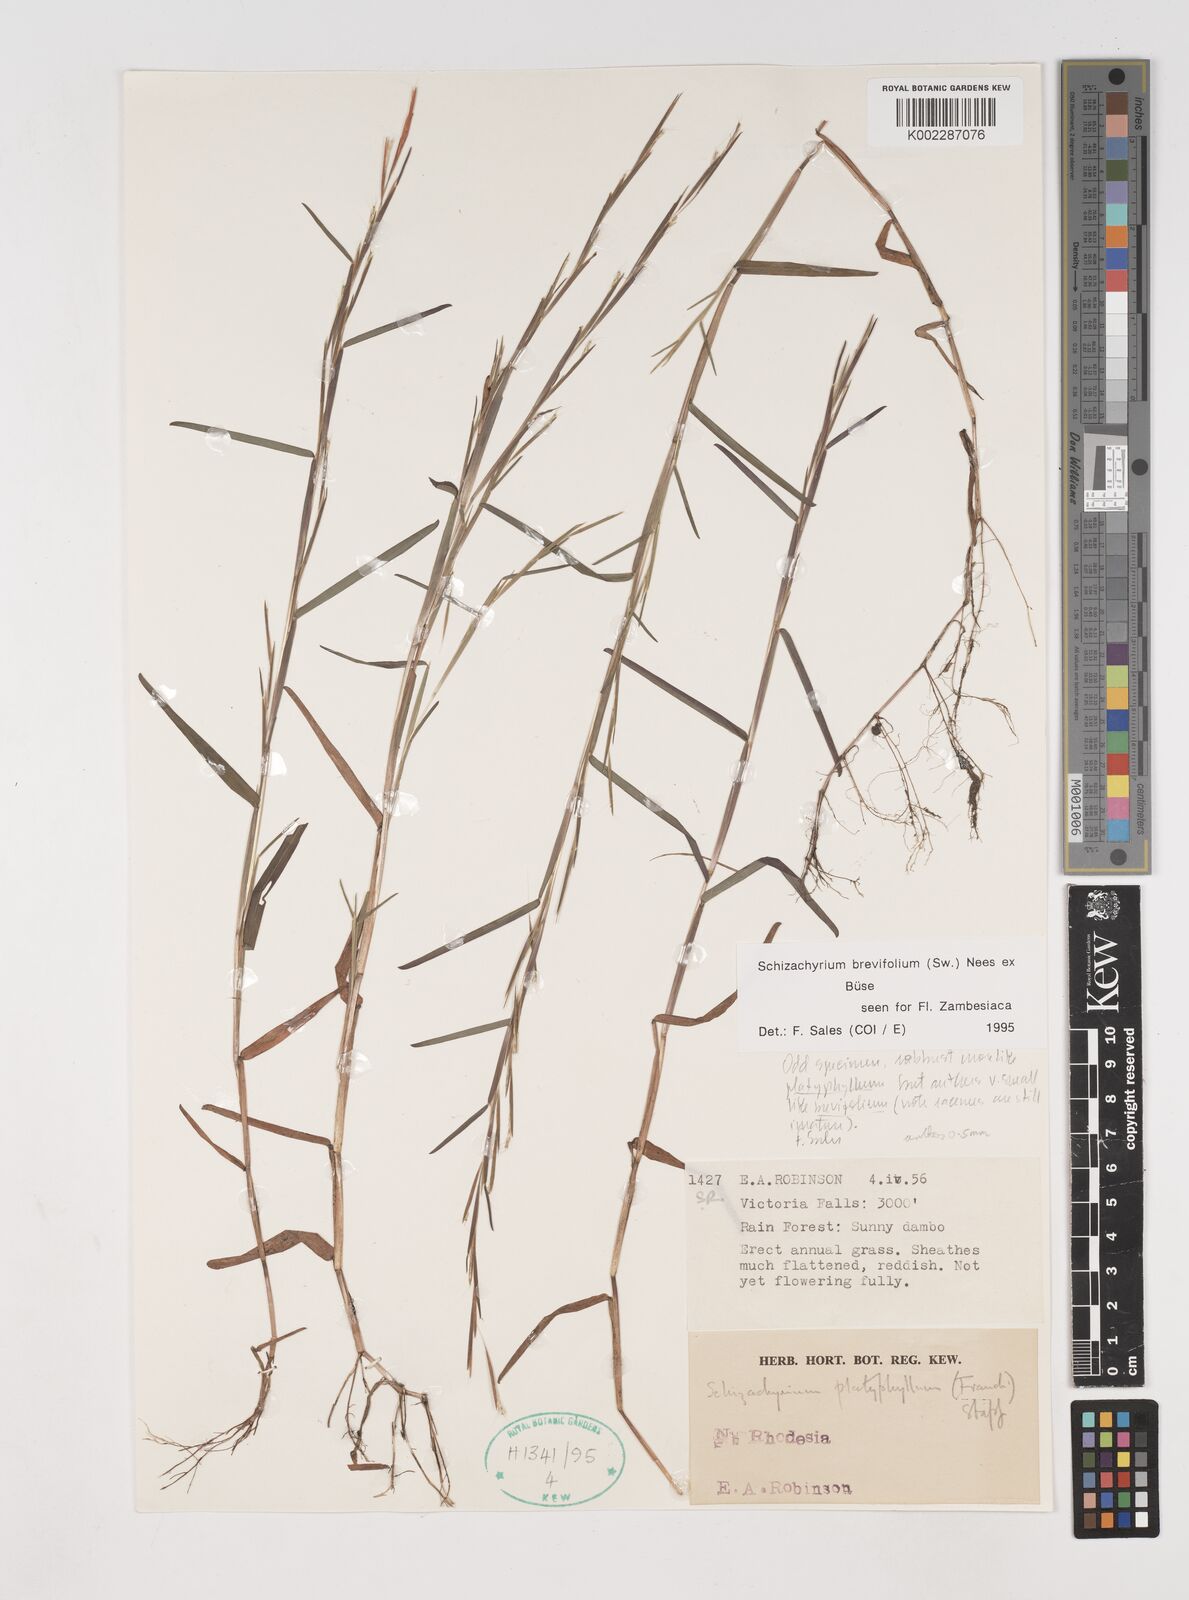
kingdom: Plantae
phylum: Tracheophyta
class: Liliopsida
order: Poales
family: Poaceae
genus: Schizachyrium
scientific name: Schizachyrium brevifolium
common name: Serillo dulce
